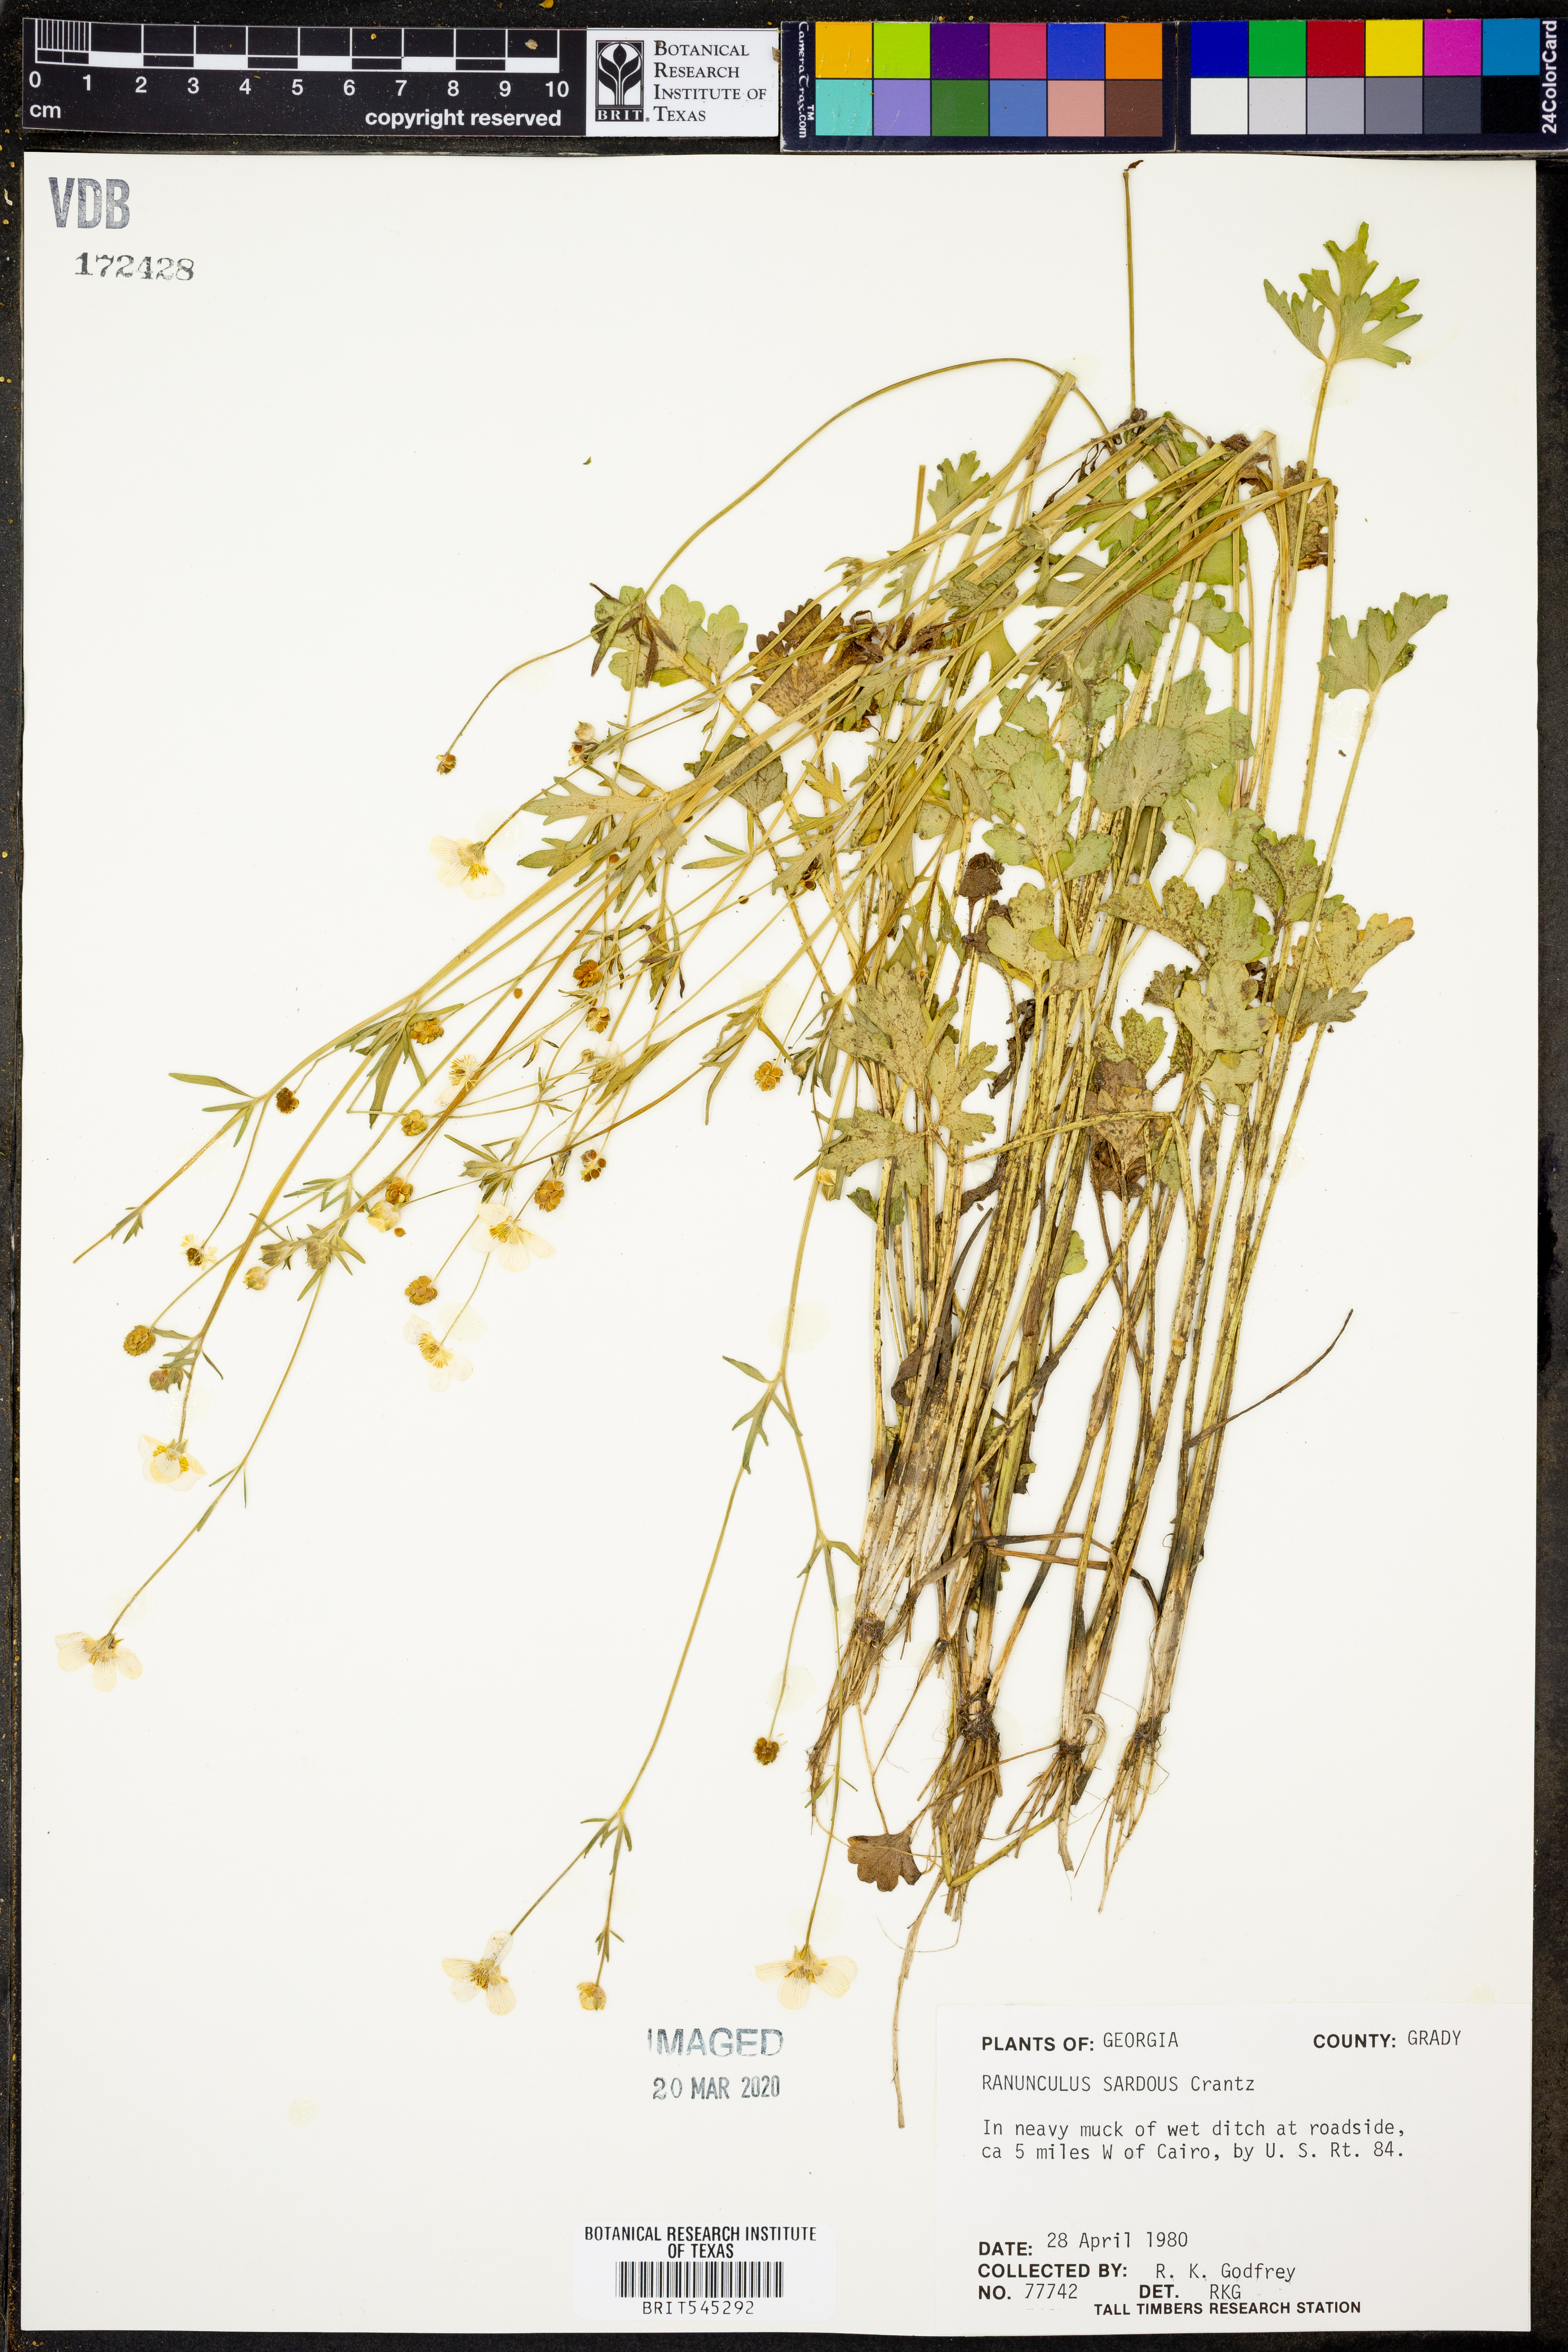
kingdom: Plantae
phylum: Tracheophyta
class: Magnoliopsida
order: Ranunculales
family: Ranunculaceae
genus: Ranunculus
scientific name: Ranunculus sardous
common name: Hairy buttercup
